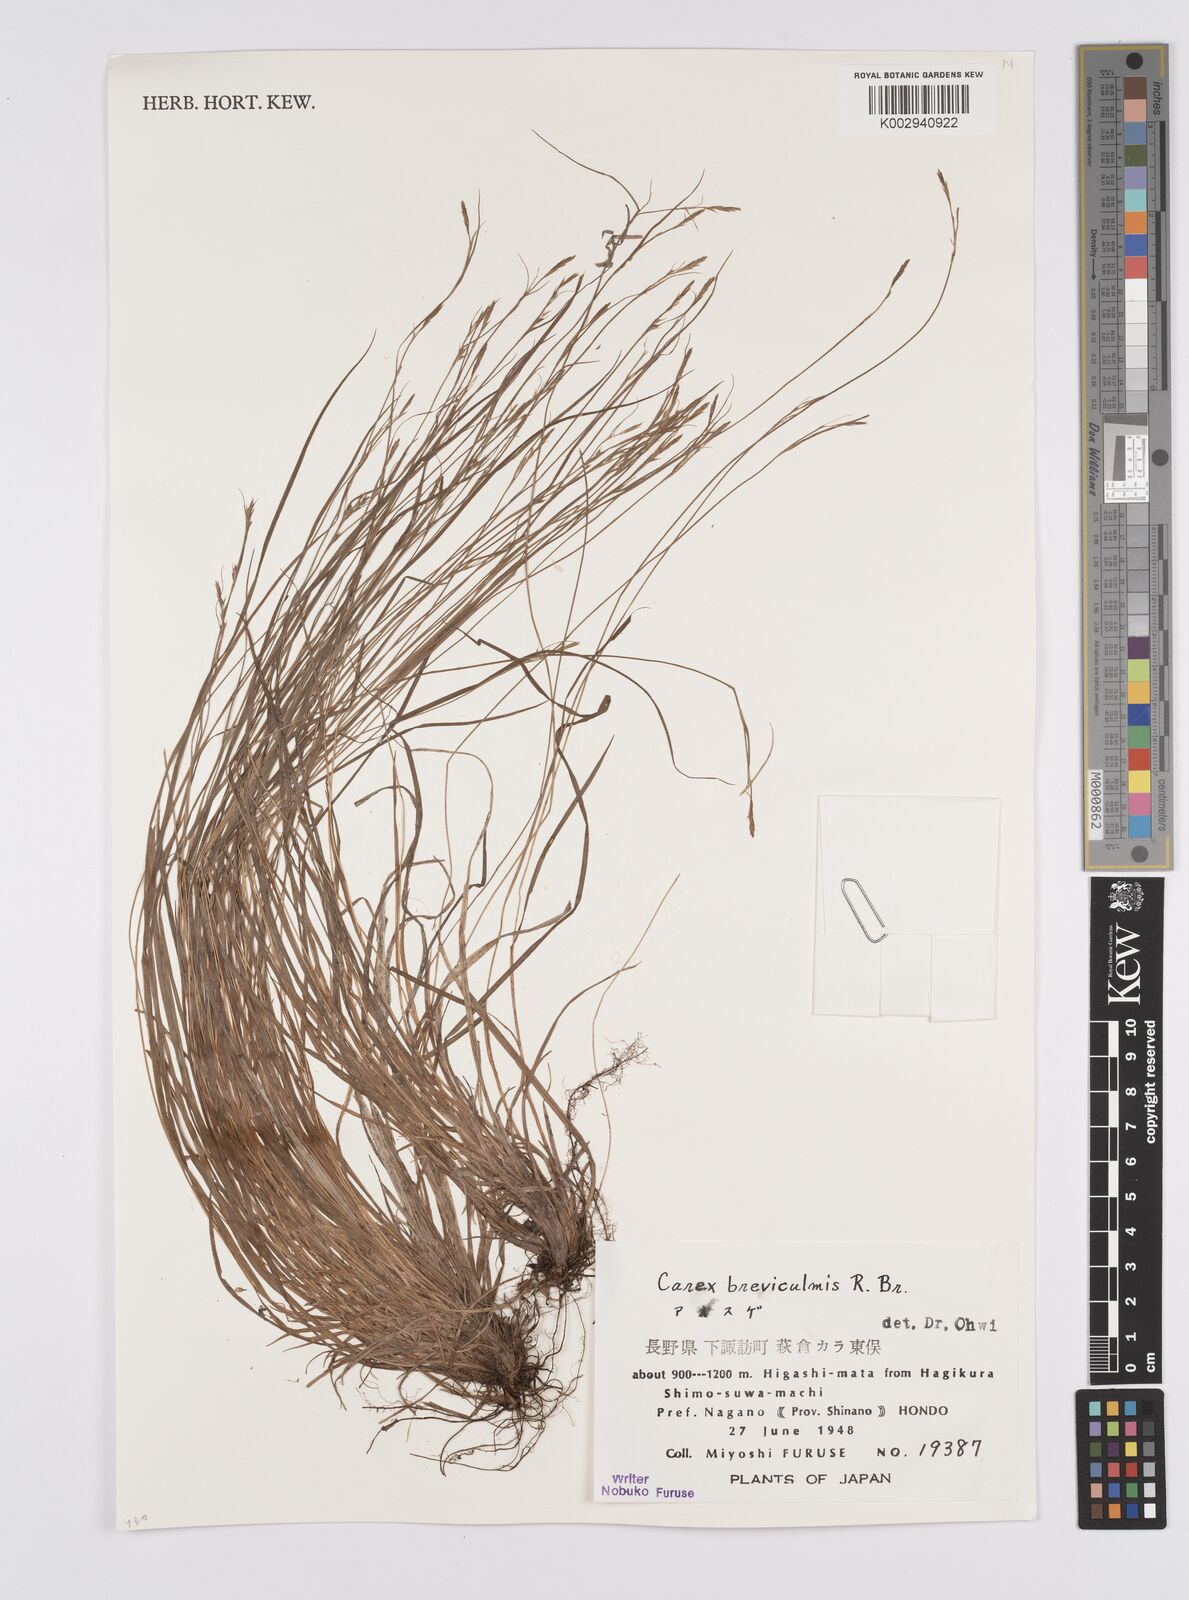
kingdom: Plantae
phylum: Tracheophyta
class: Liliopsida
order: Poales
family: Cyperaceae
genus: Carex
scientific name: Carex breviculmis
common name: Asian shortstem sedge
